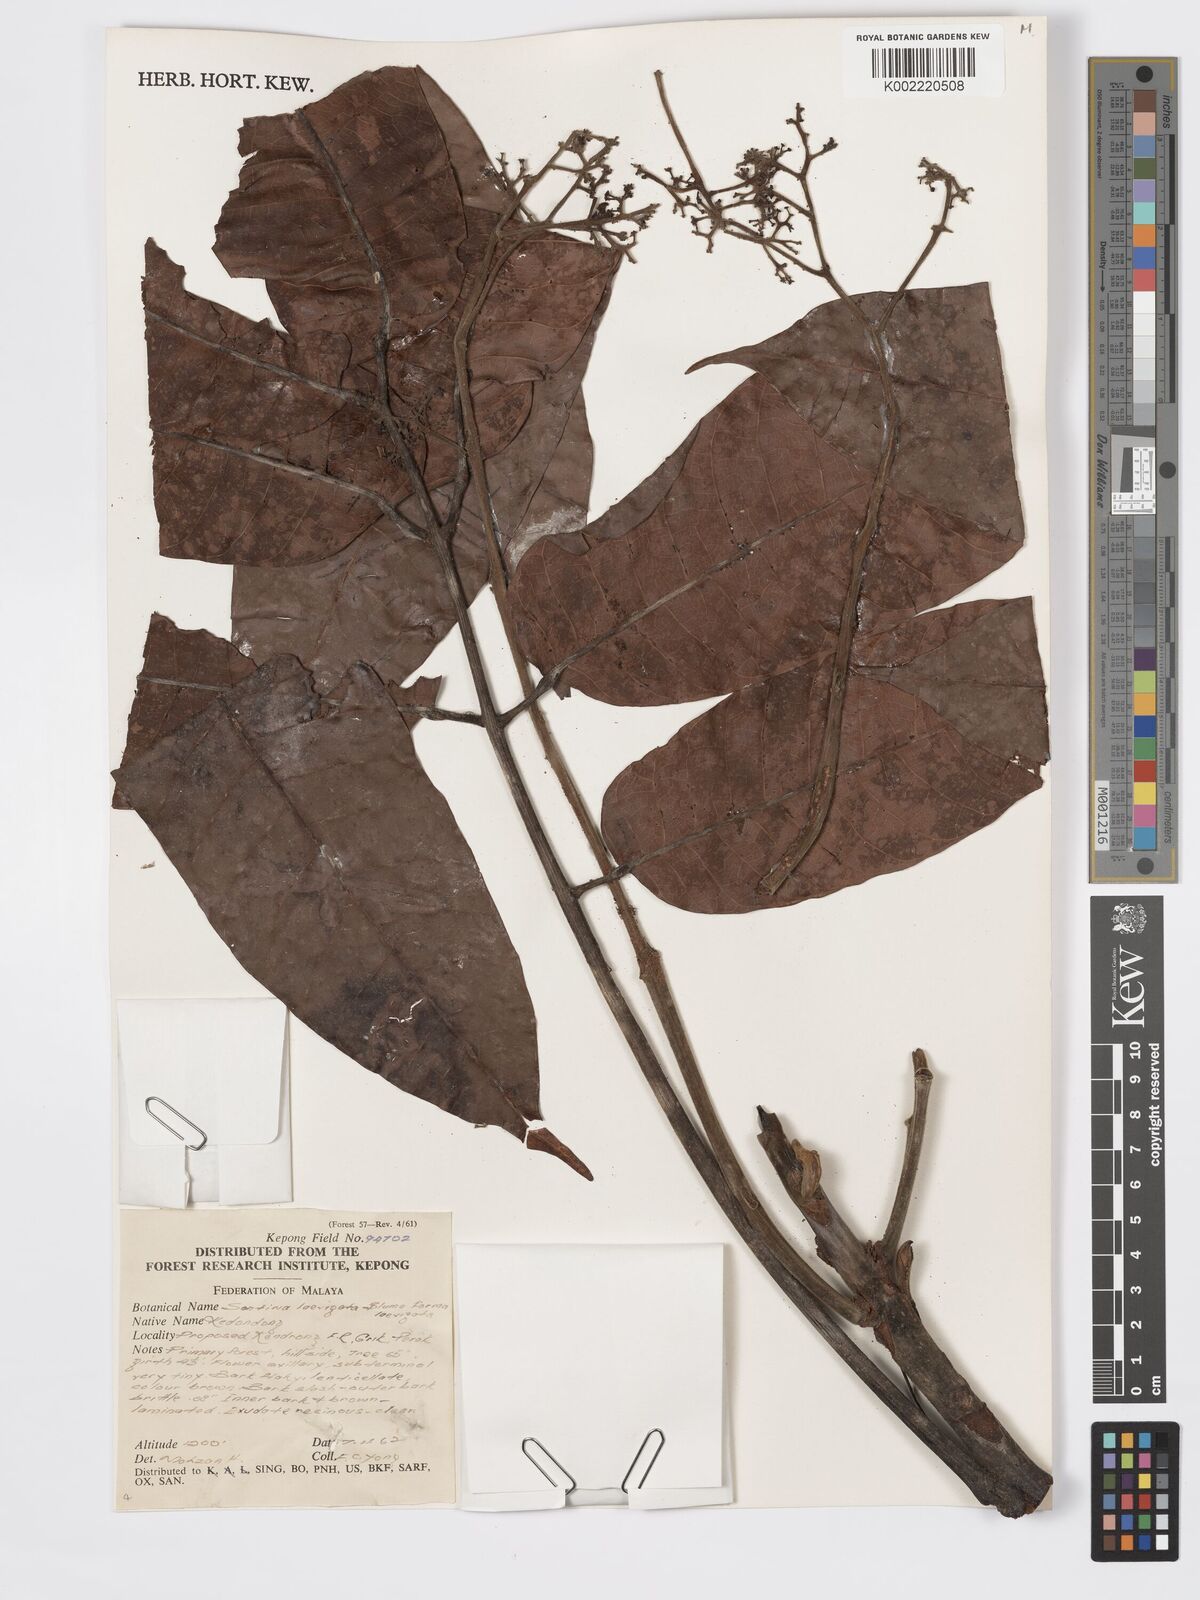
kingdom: Plantae
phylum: Tracheophyta
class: Magnoliopsida
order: Sapindales
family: Burseraceae
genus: Santiria
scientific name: Santiria laevigata
